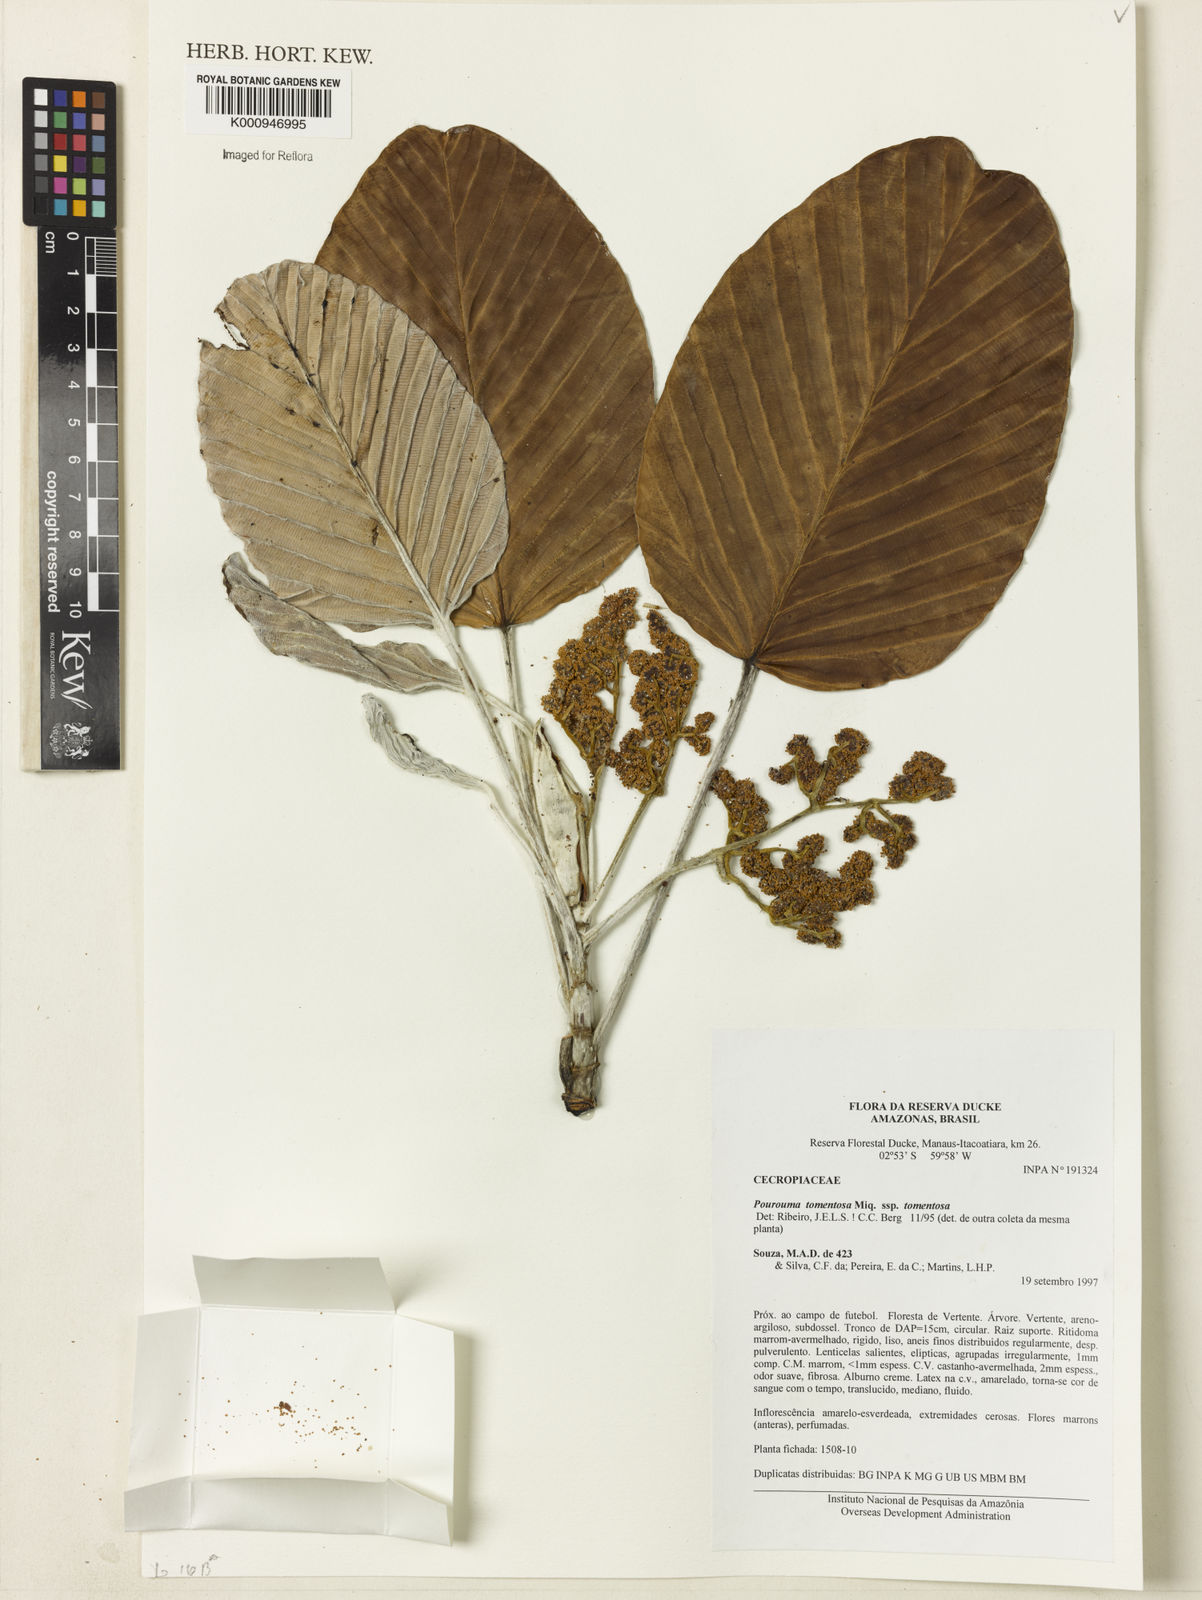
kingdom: Plantae
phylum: Tracheophyta
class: Magnoliopsida
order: Rosales
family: Urticaceae
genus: Pourouma
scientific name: Pourouma tomentosa
